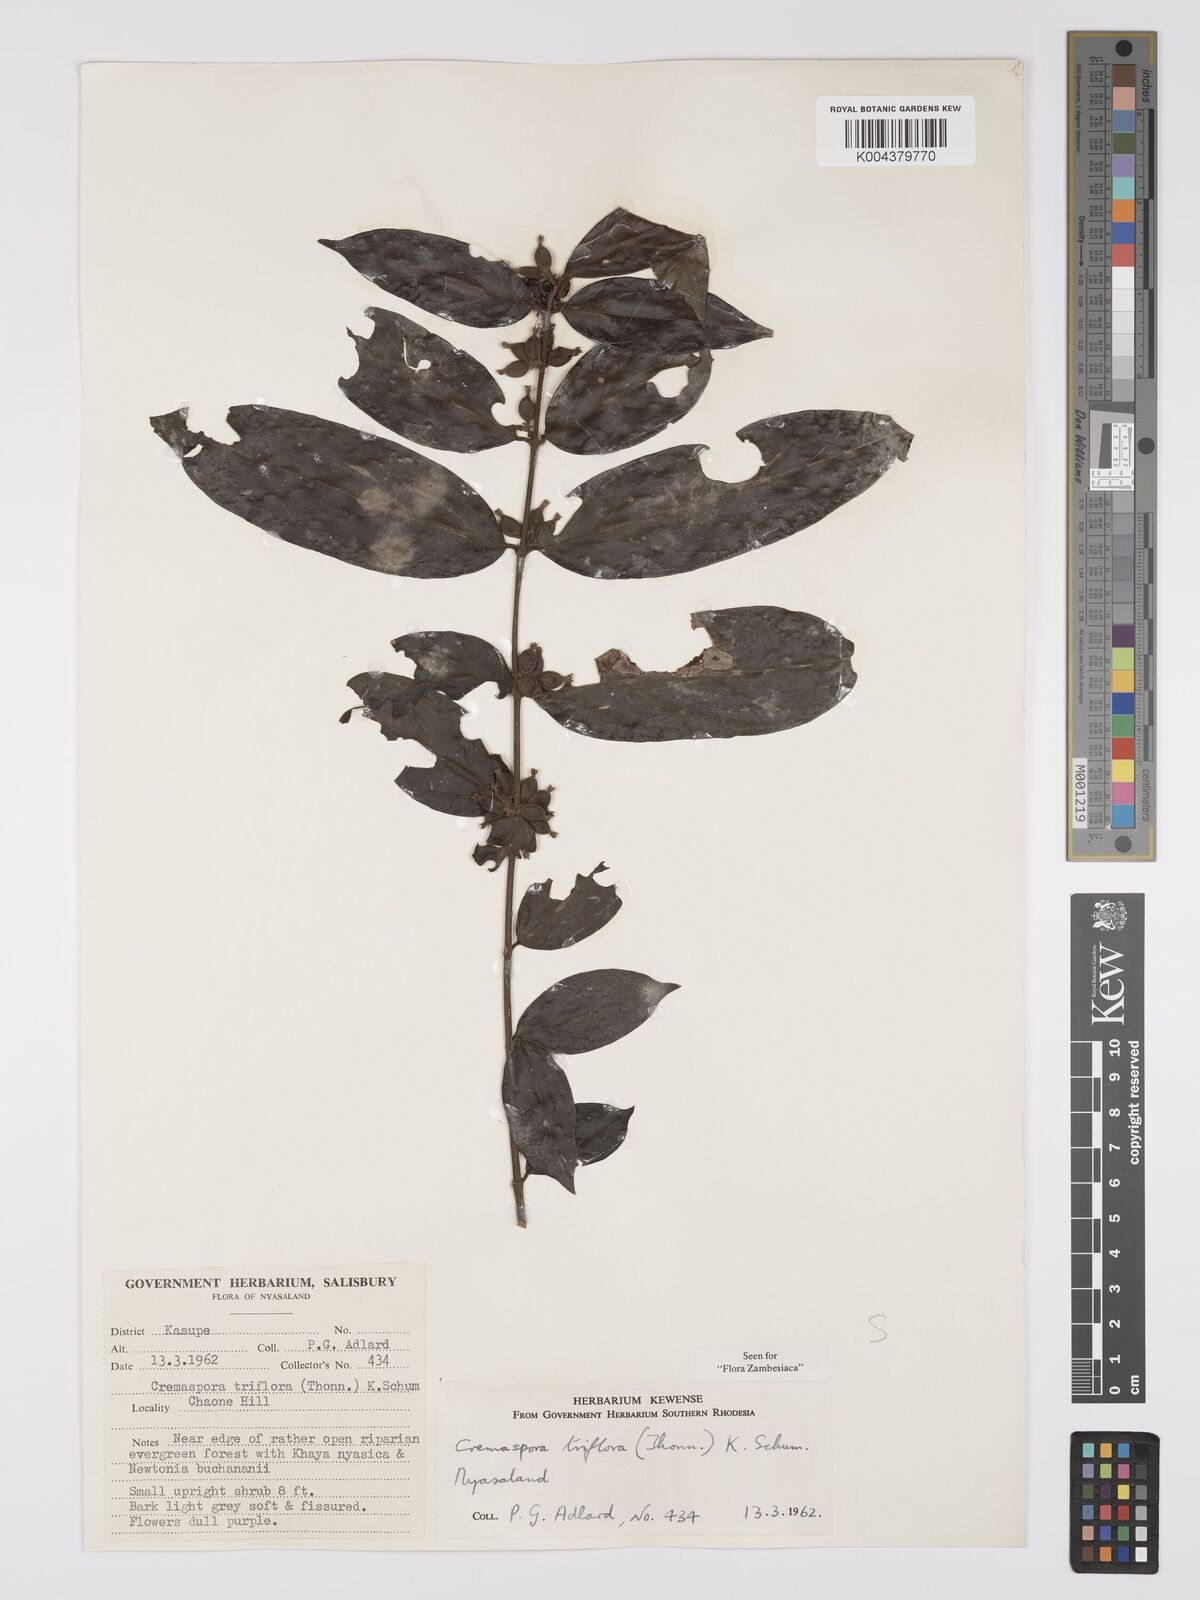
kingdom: Plantae
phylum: Tracheophyta
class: Magnoliopsida
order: Gentianales
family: Rubiaceae
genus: Cremaspora
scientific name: Cremaspora triflora
